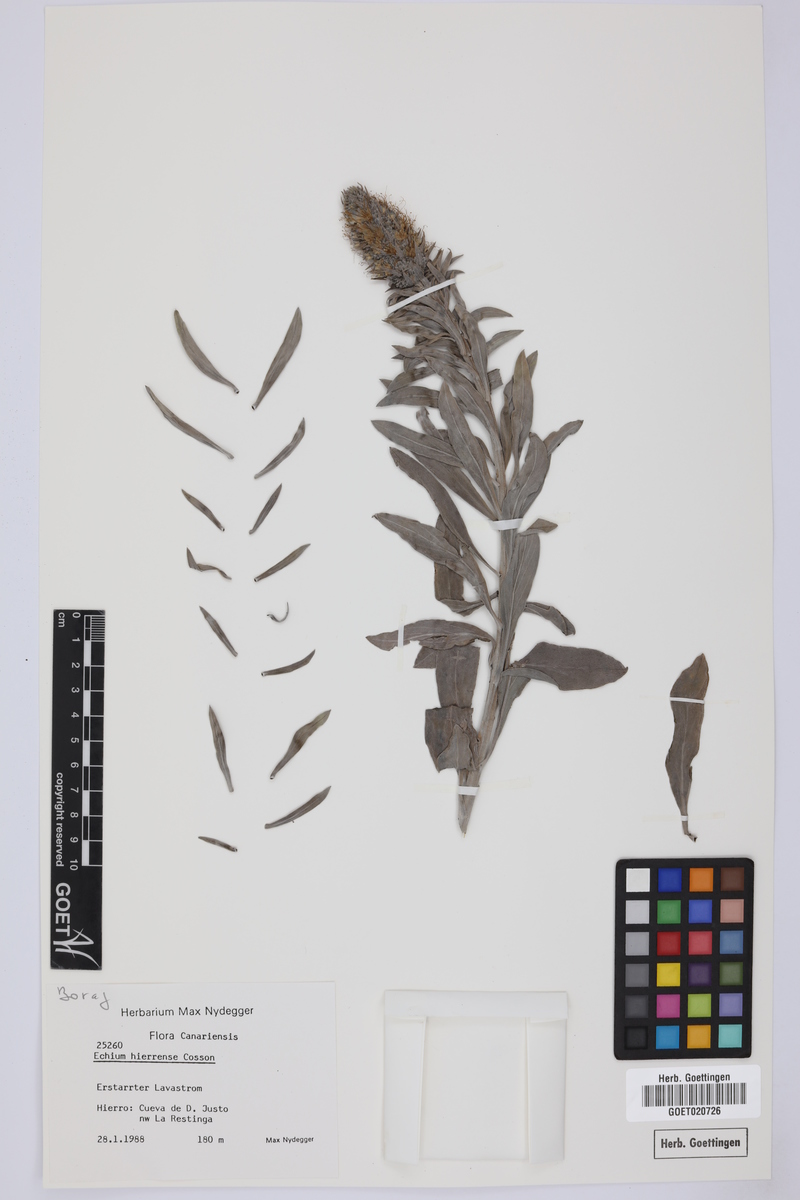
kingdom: Plantae
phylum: Tracheophyta
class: Magnoliopsida
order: Boraginales
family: Boraginaceae
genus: Echium
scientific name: Echium hierrense
